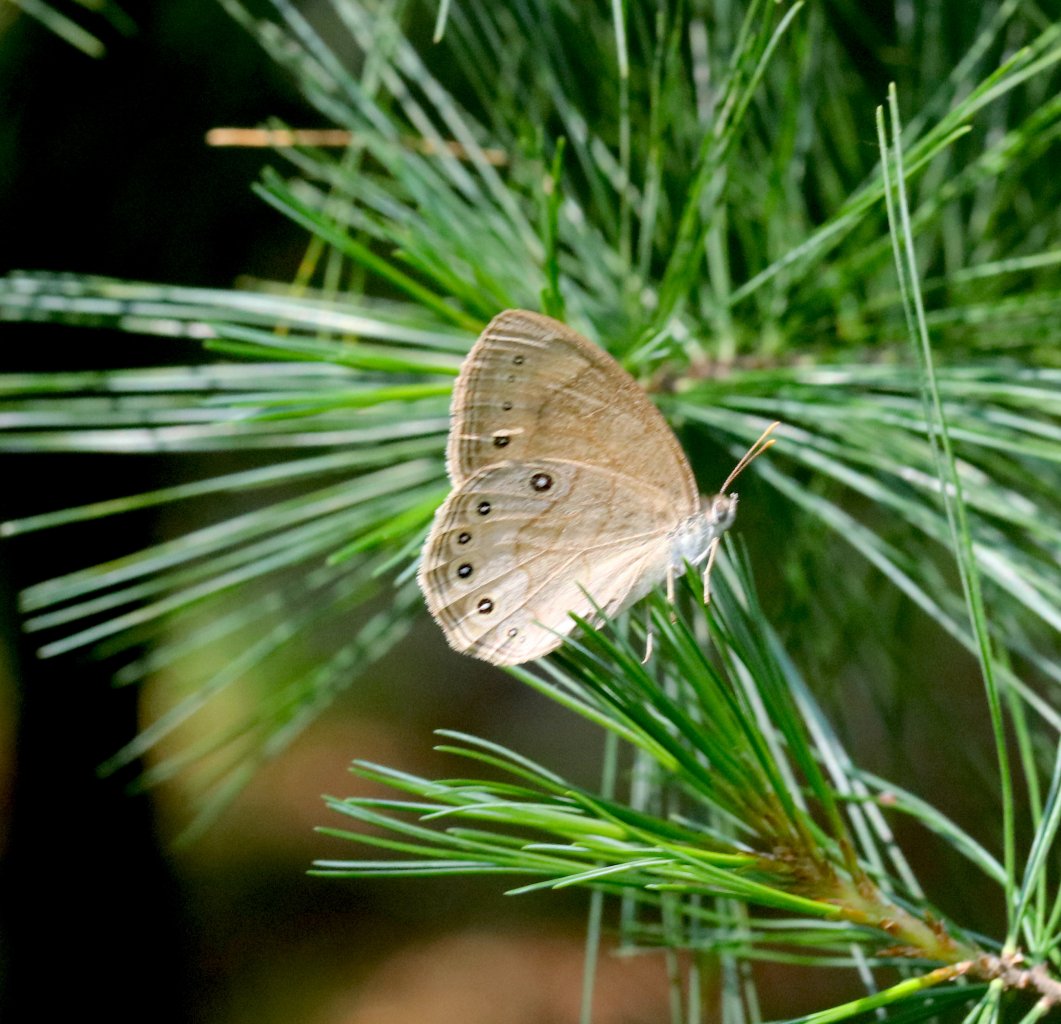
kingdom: Animalia
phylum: Arthropoda
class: Insecta
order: Lepidoptera
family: Nymphalidae
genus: Lethe
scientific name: Lethe eurydice
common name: Appalachian Eyed Brown
